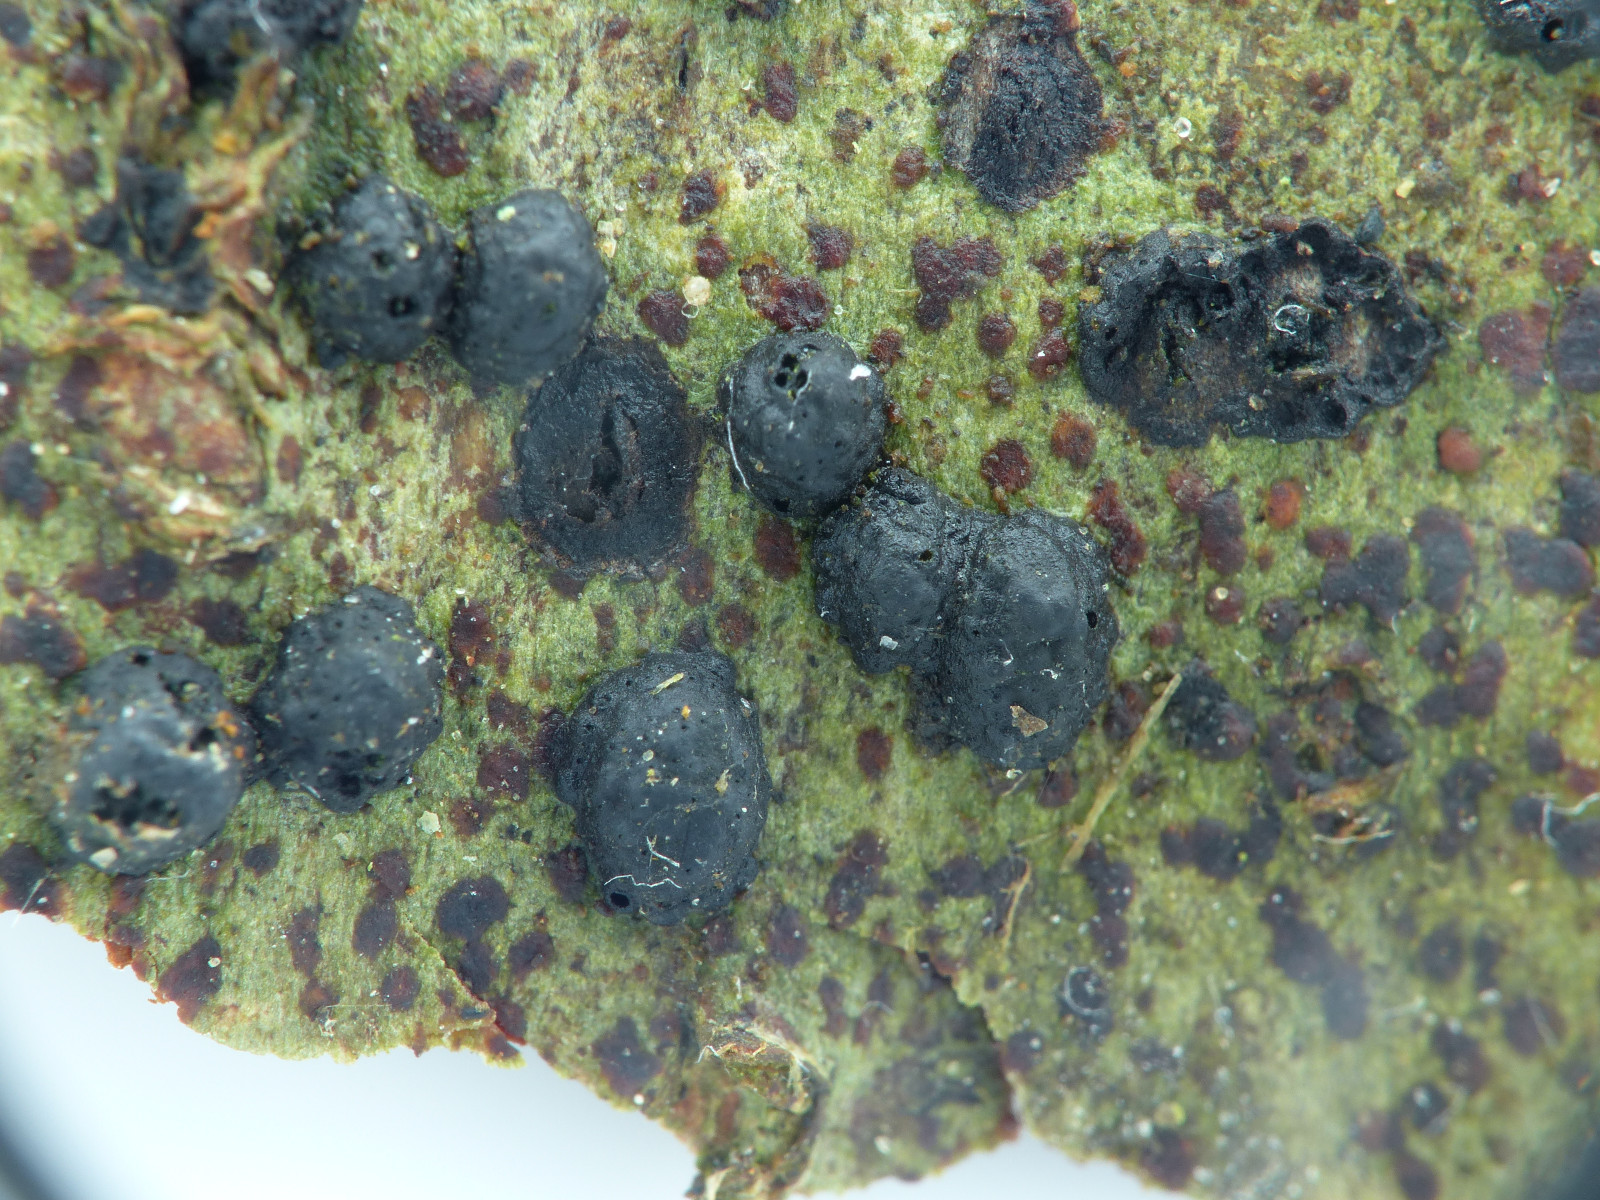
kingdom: Fungi
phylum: Ascomycota
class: Sordariomycetes
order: Xylariales
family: Hypoxylaceae
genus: Hypoxylon
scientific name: Hypoxylon
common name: kulbær
